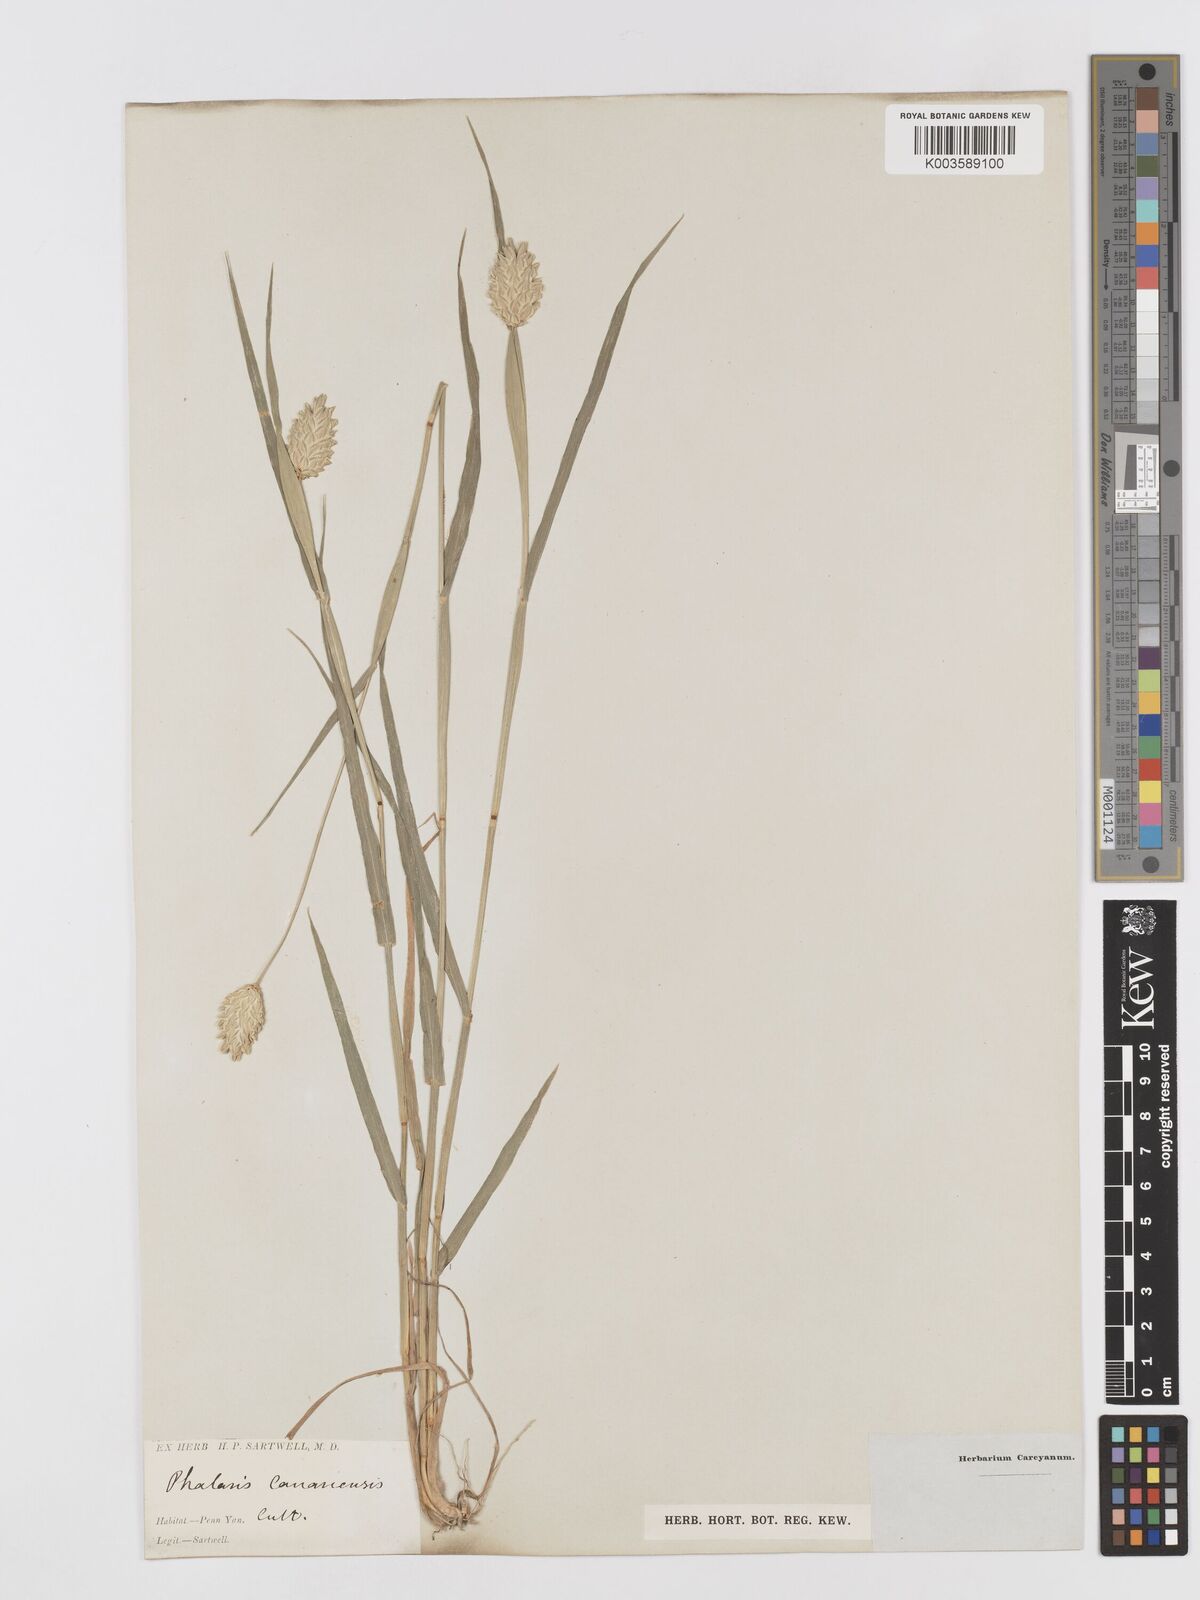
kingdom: Plantae
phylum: Tracheophyta
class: Liliopsida
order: Poales
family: Poaceae
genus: Phalaris
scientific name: Phalaris canariensis
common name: Annual canarygrass
